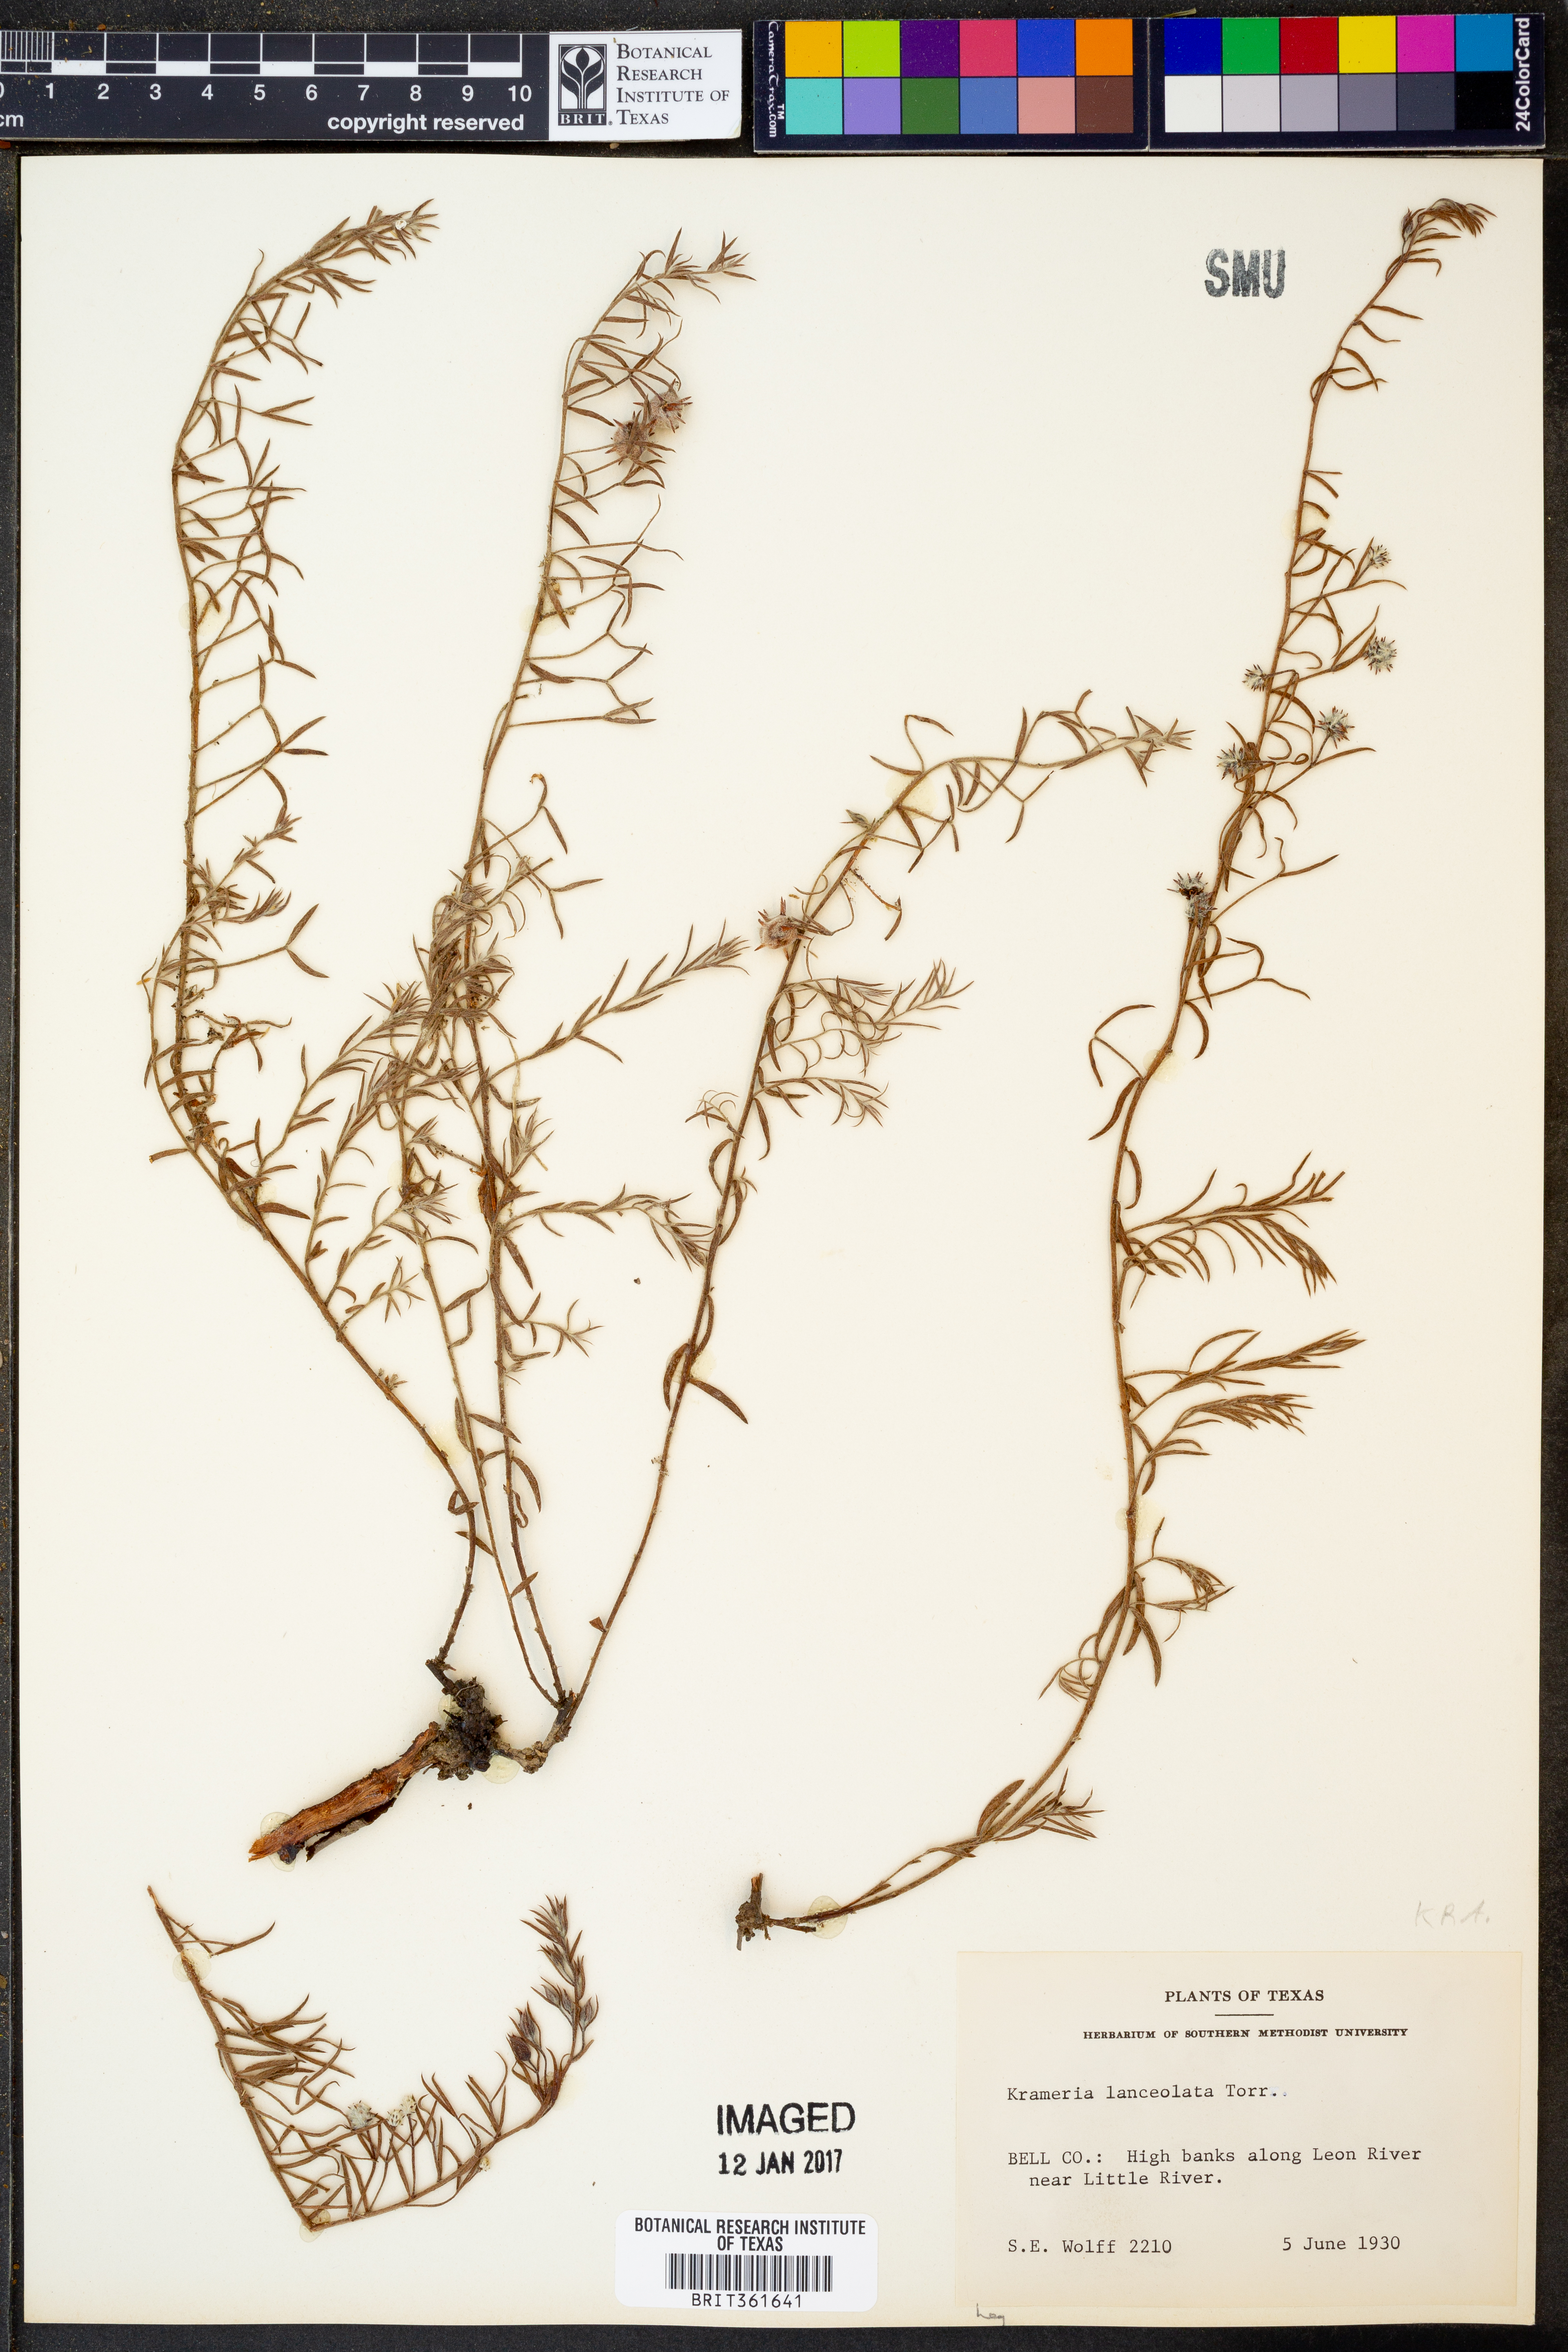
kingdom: Plantae
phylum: Tracheophyta
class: Magnoliopsida
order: Zygophyllales
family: Krameriaceae
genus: Krameria
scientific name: Krameria lanceolata
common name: Ratany
